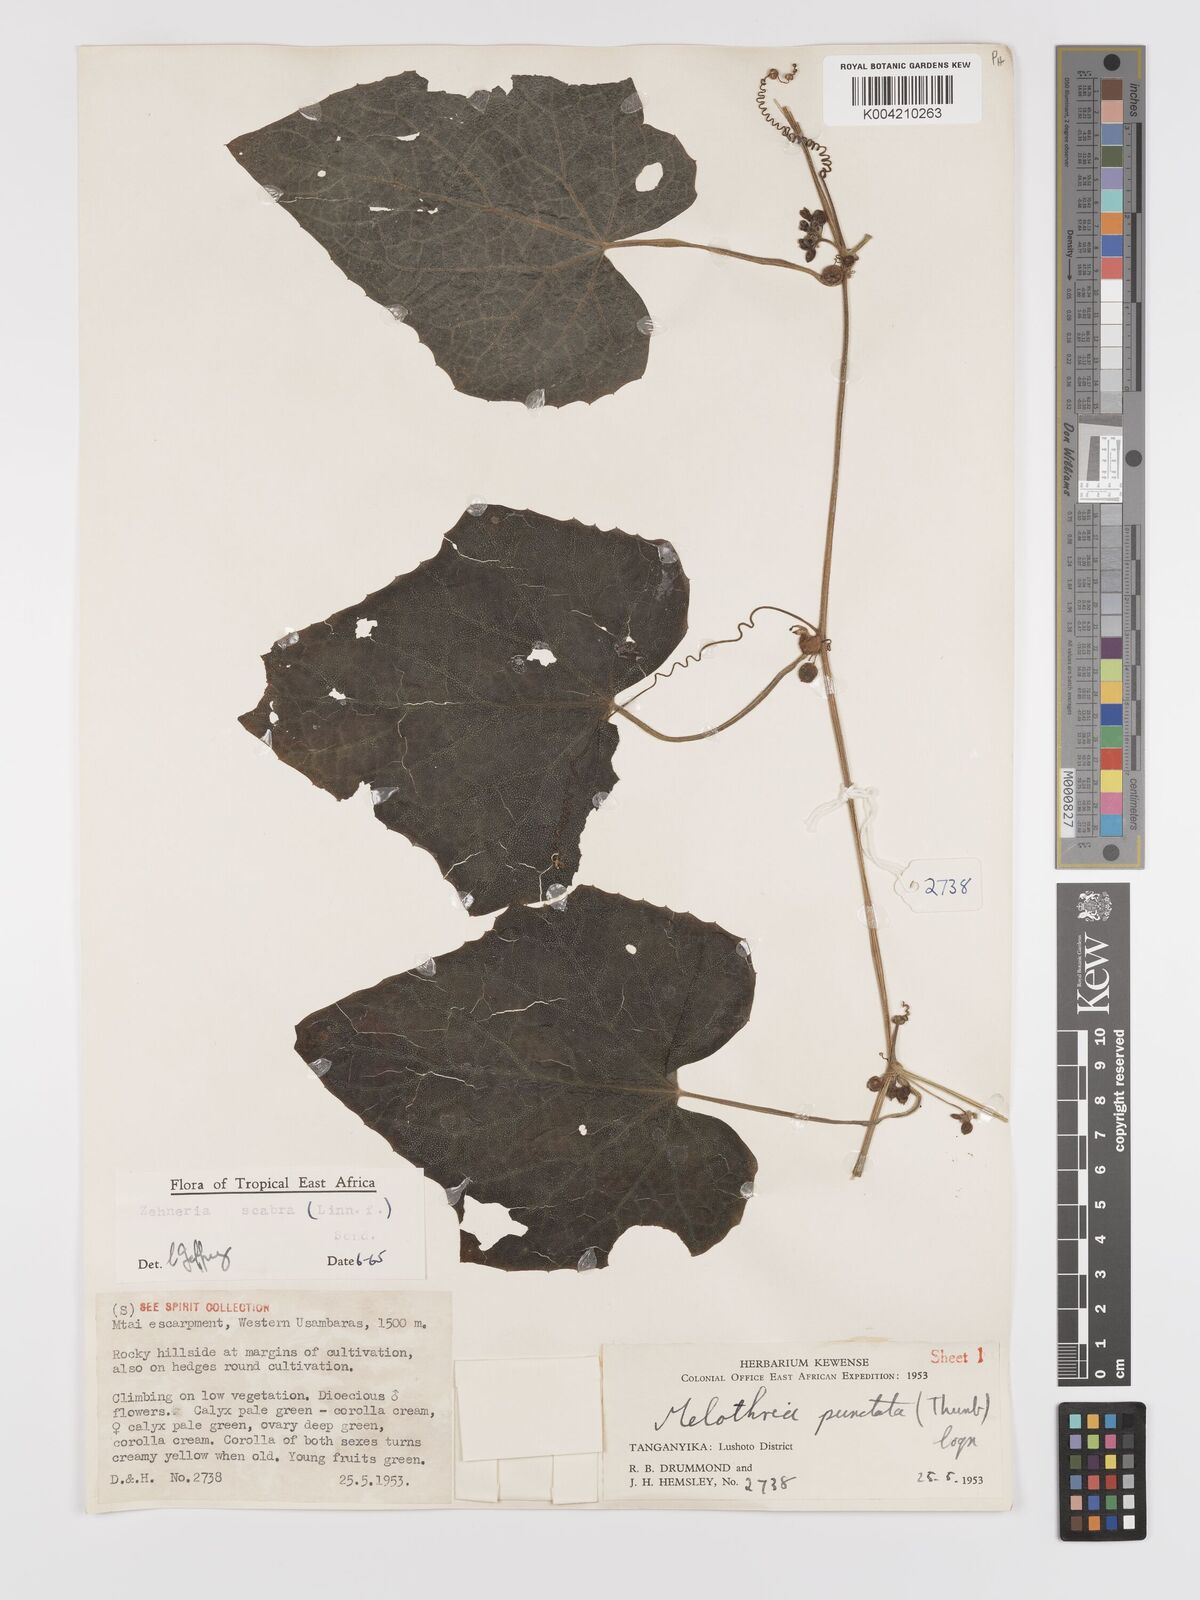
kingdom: Plantae
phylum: Tracheophyta
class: Magnoliopsida
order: Cucurbitales
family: Cucurbitaceae
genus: Zehneria
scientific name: Zehneria scabra
